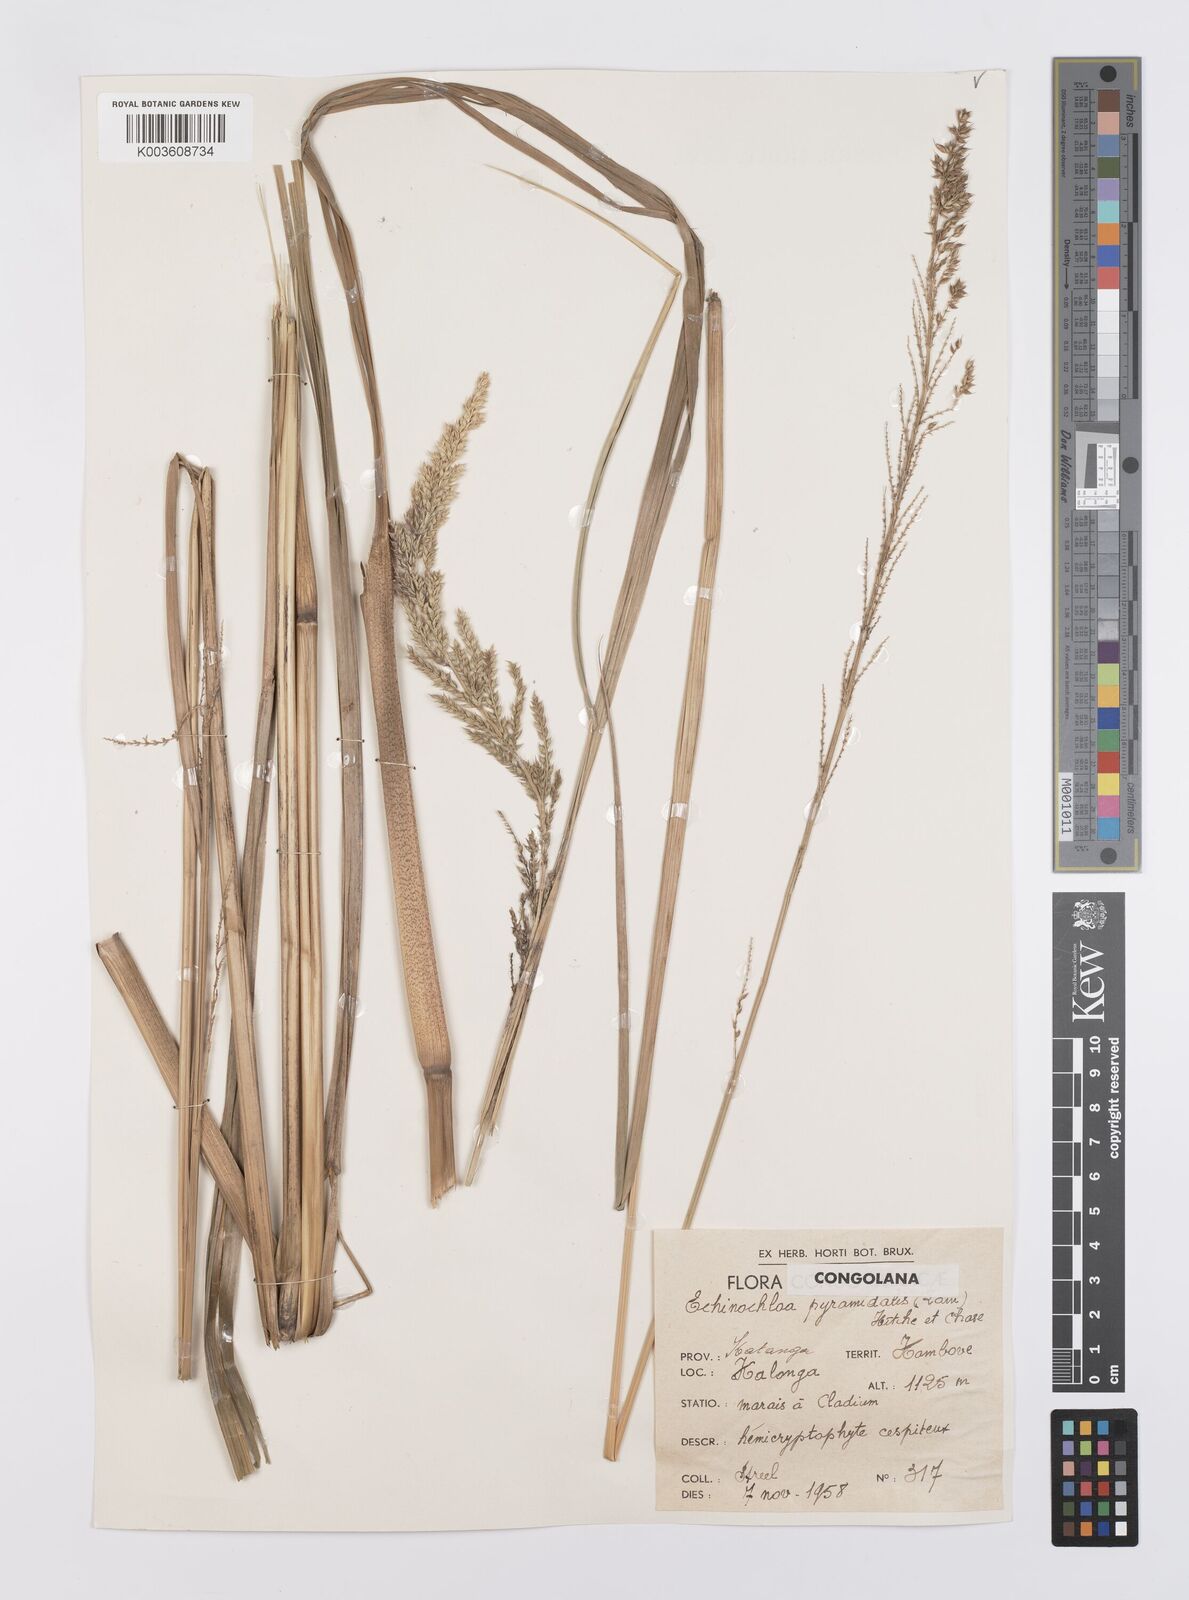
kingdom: Plantae
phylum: Tracheophyta
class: Liliopsida
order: Poales
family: Poaceae
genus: Echinochloa
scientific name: Echinochloa pyramidalis
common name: Antelope grass
